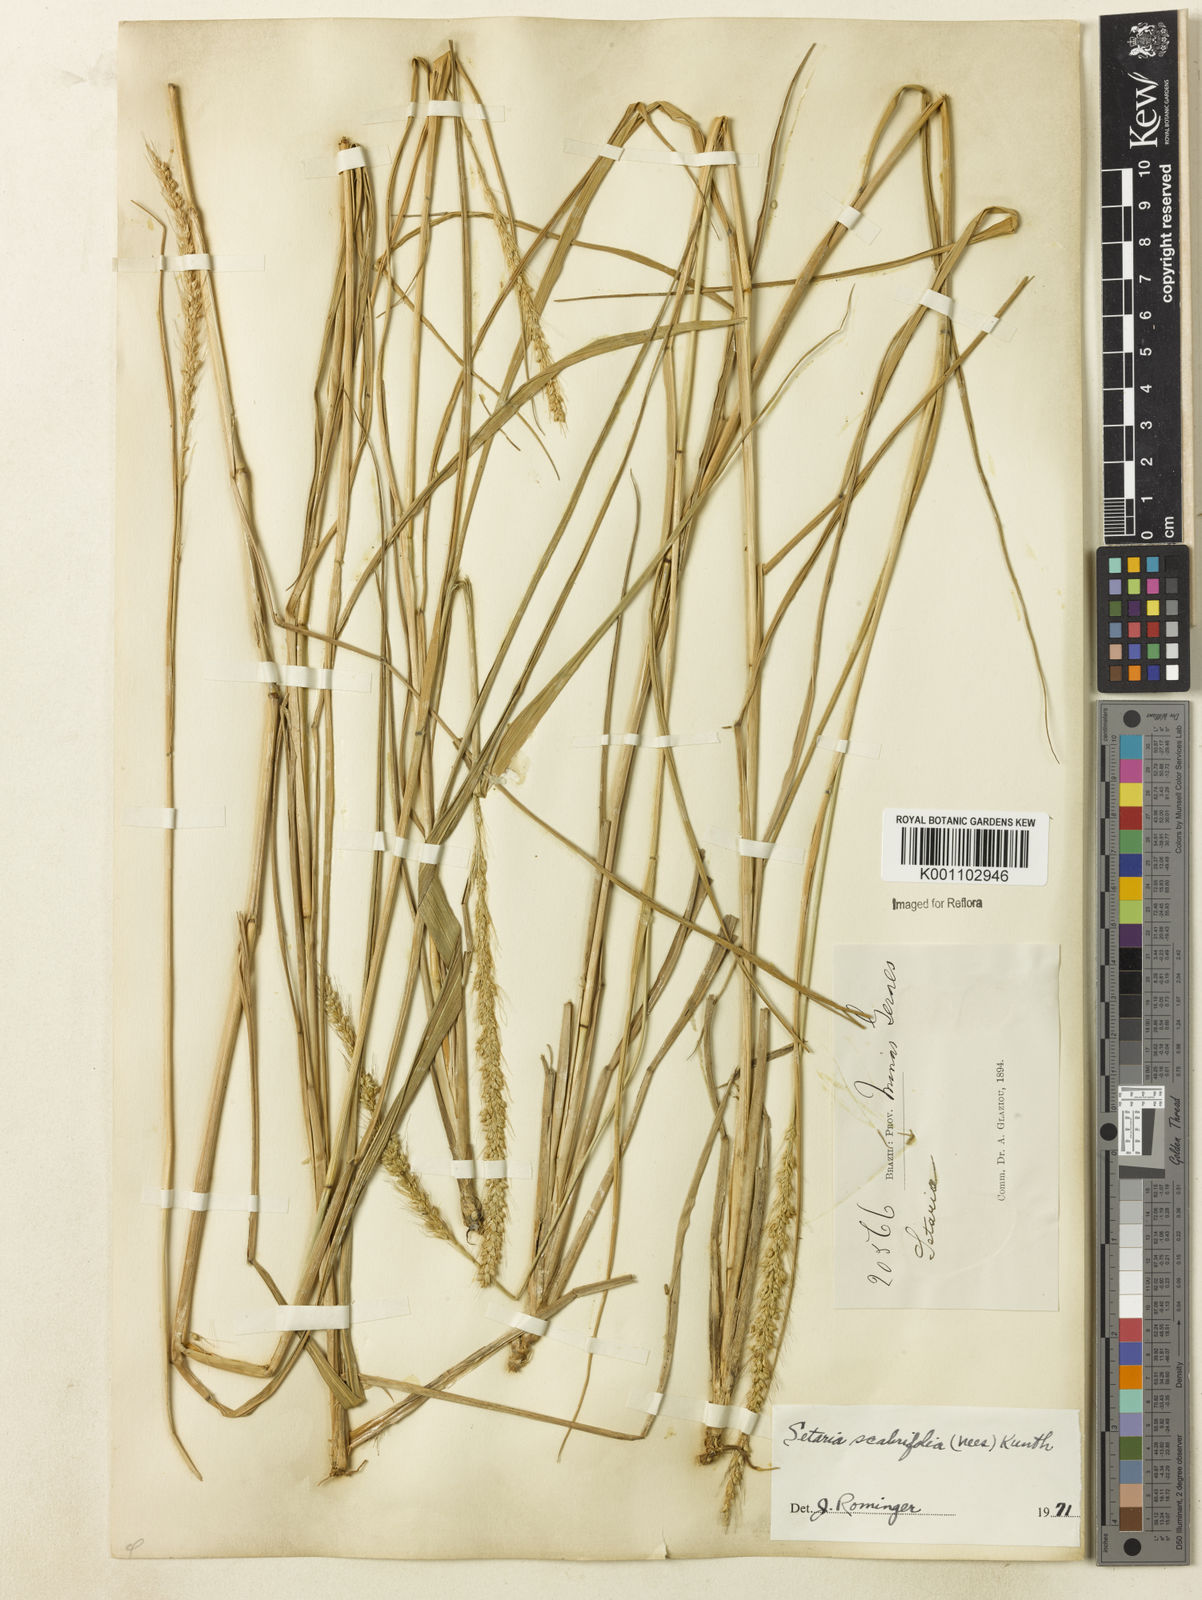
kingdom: Plantae
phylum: Tracheophyta
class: Liliopsida
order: Poales
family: Poaceae
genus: Setaria
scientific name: Setaria globulifera
